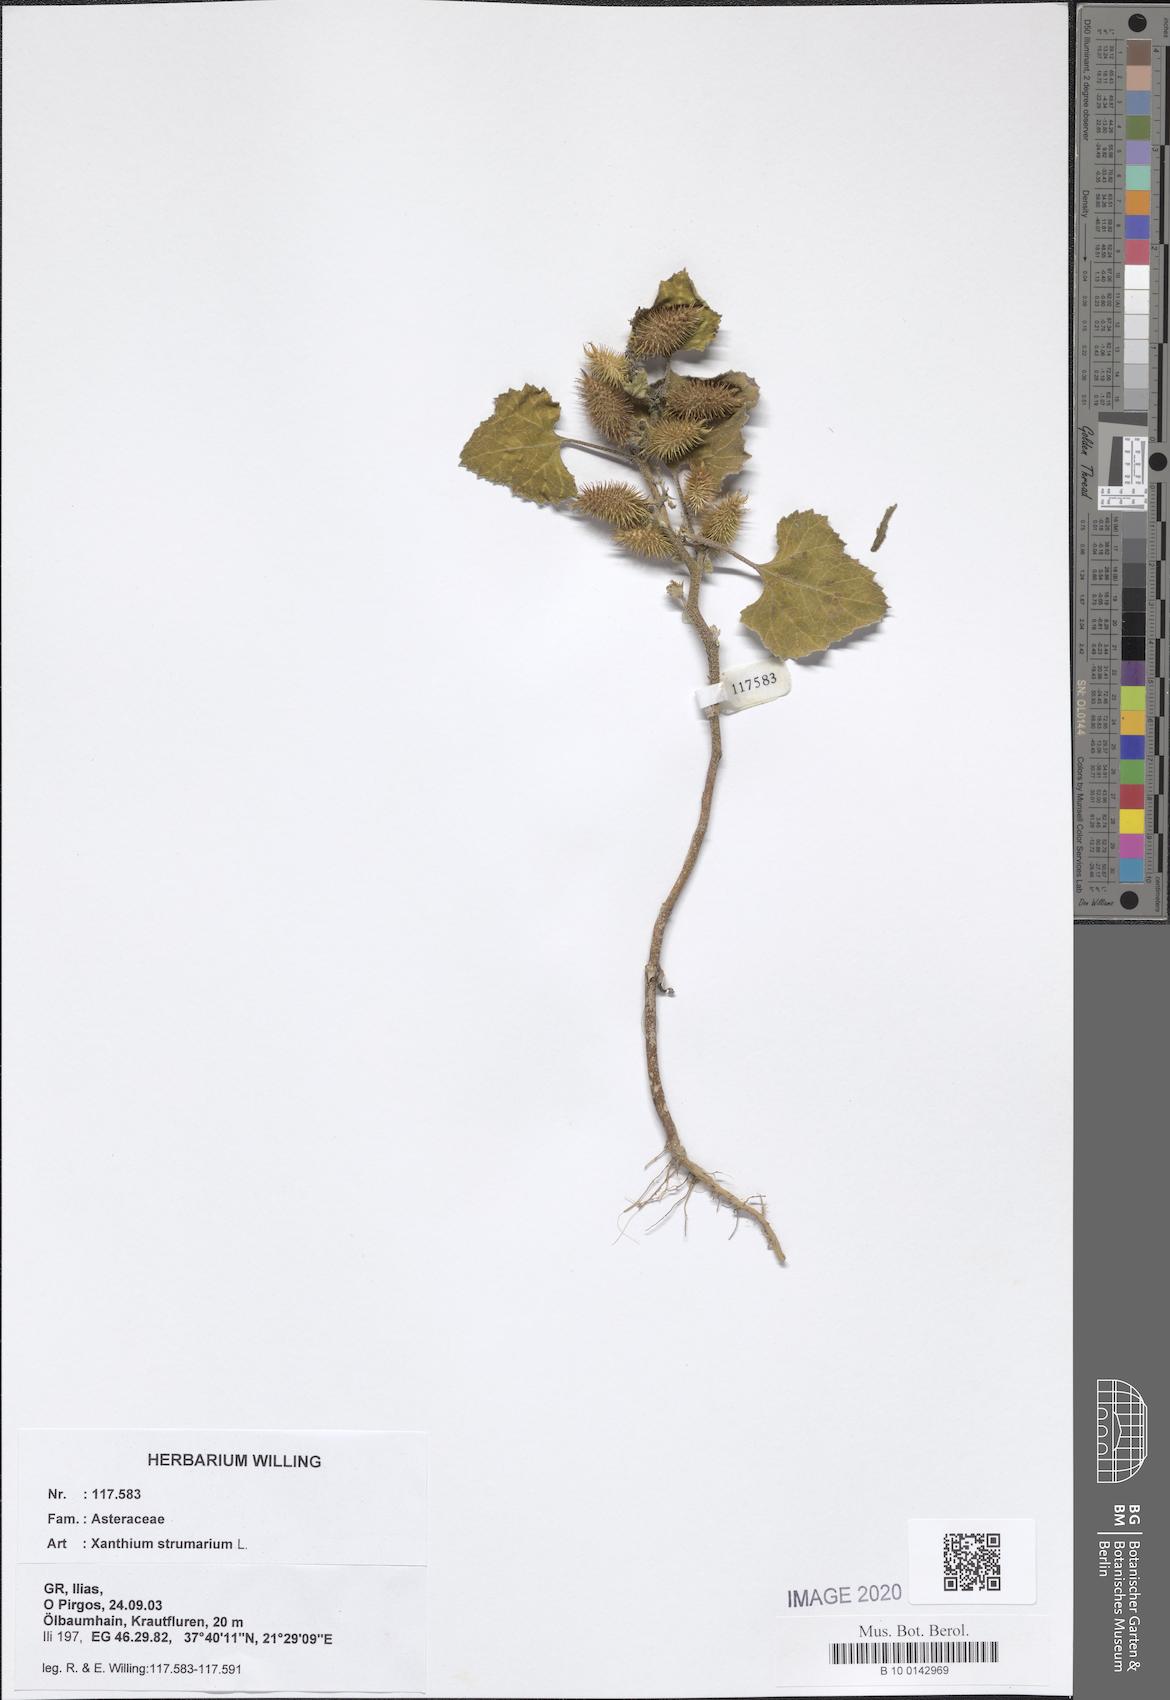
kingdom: Plantae
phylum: Tracheophyta
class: Magnoliopsida
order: Asterales
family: Asteraceae
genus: Xanthium
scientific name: Xanthium strumarium
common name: Rough cocklebur
